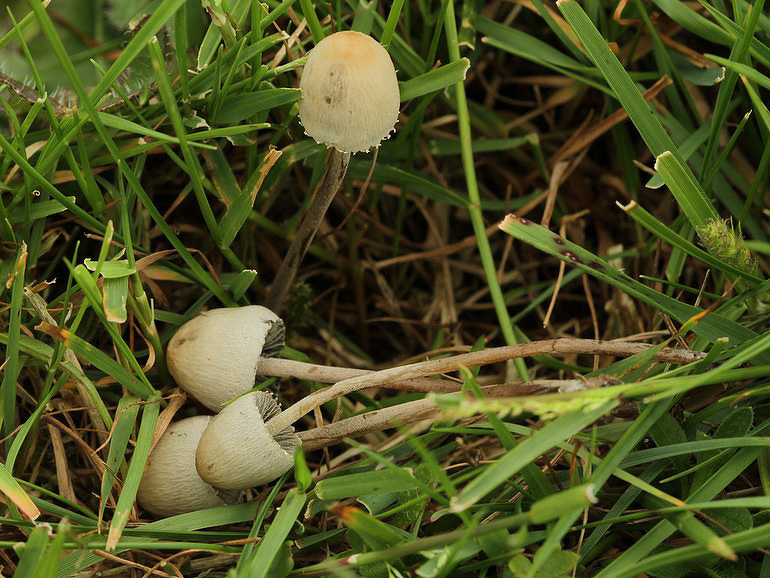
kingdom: Fungi
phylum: Basidiomycota
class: Agaricomycetes
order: Agaricales
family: Bolbitiaceae
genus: Panaeolus
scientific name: Panaeolus papilionaceus
